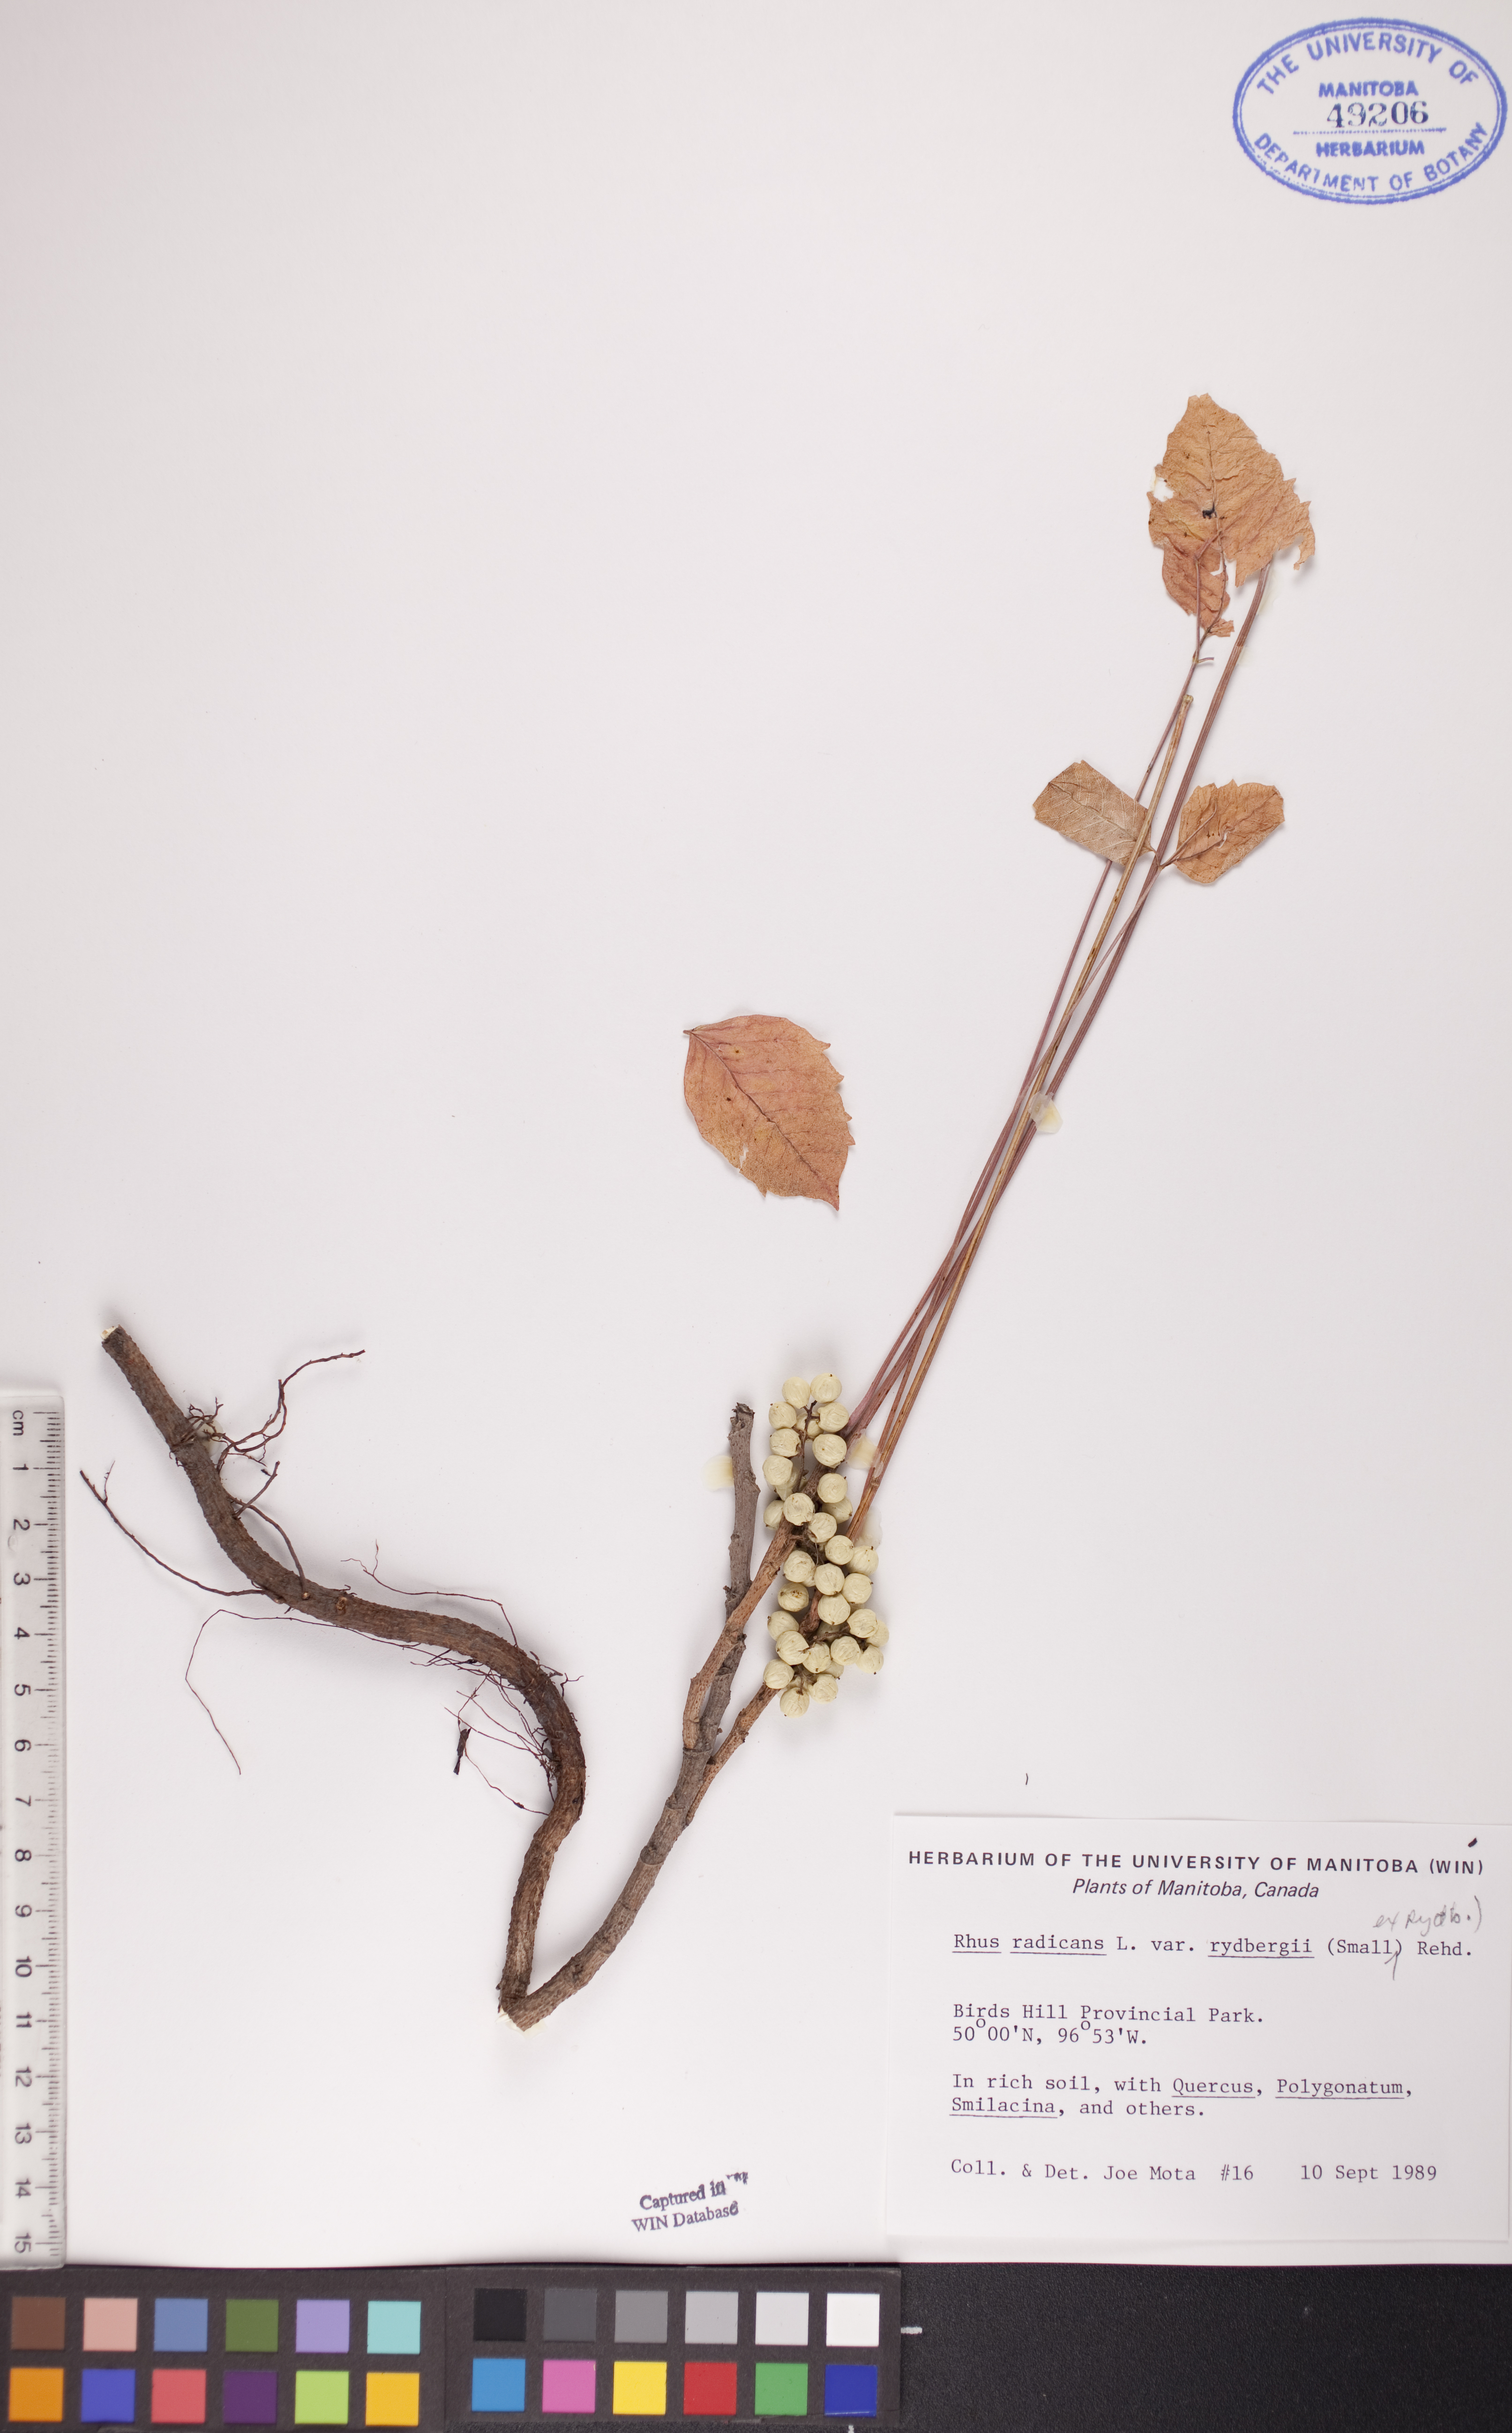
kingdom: Plantae
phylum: Tracheophyta
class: Magnoliopsida
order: Sapindales
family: Anacardiaceae
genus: Toxicodendron
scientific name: Toxicodendron rydbergii
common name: Rydberg's poison-ivy
